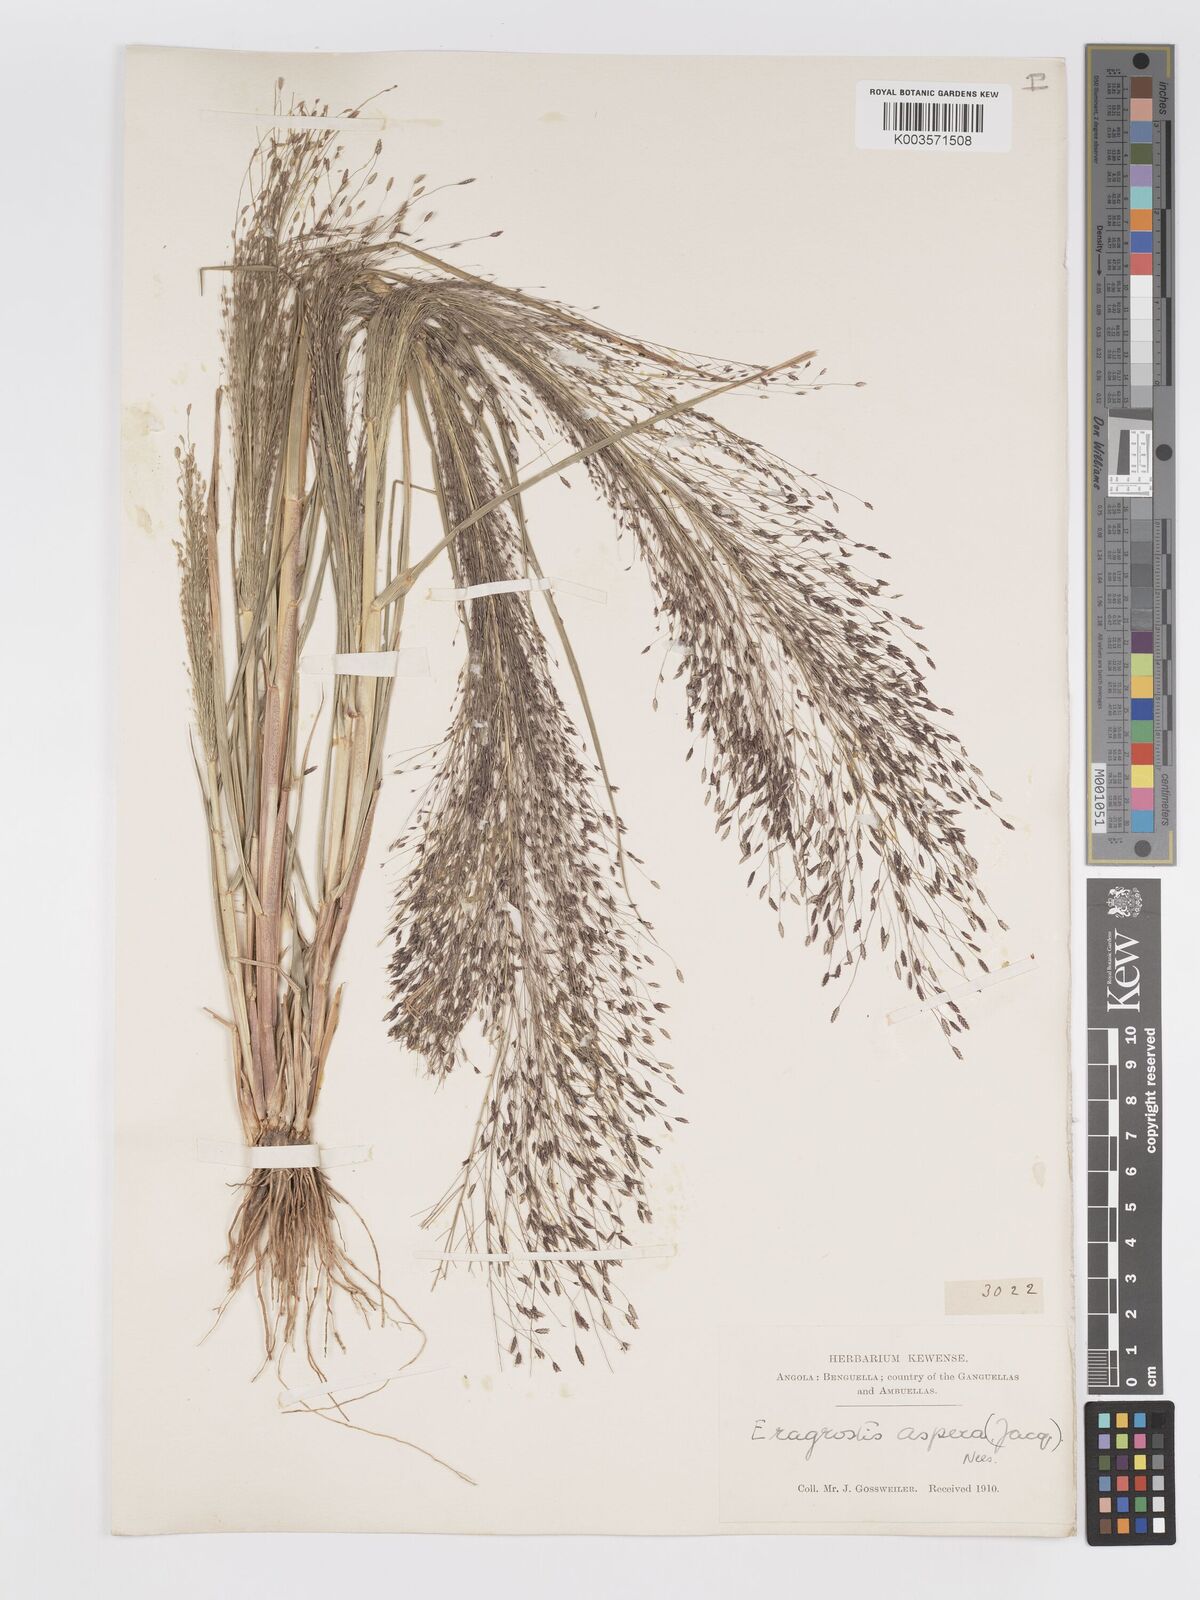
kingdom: Plantae
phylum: Tracheophyta
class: Liliopsida
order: Poales
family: Poaceae
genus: Eragrostis
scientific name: Eragrostis aspera
